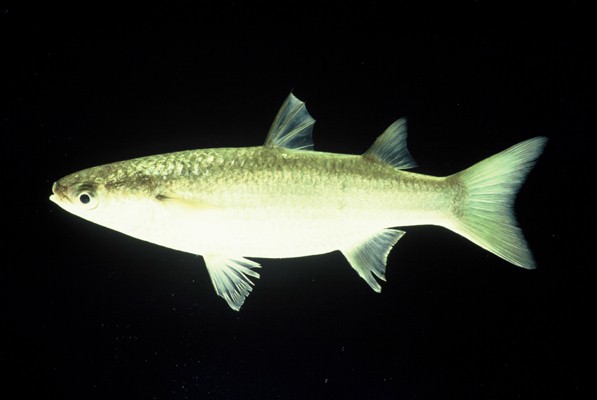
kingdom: Animalia
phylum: Chordata
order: Mugiliformes
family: Mugilidae
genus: Planiliza
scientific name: Planiliza macrolepis
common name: Largescale mullet
